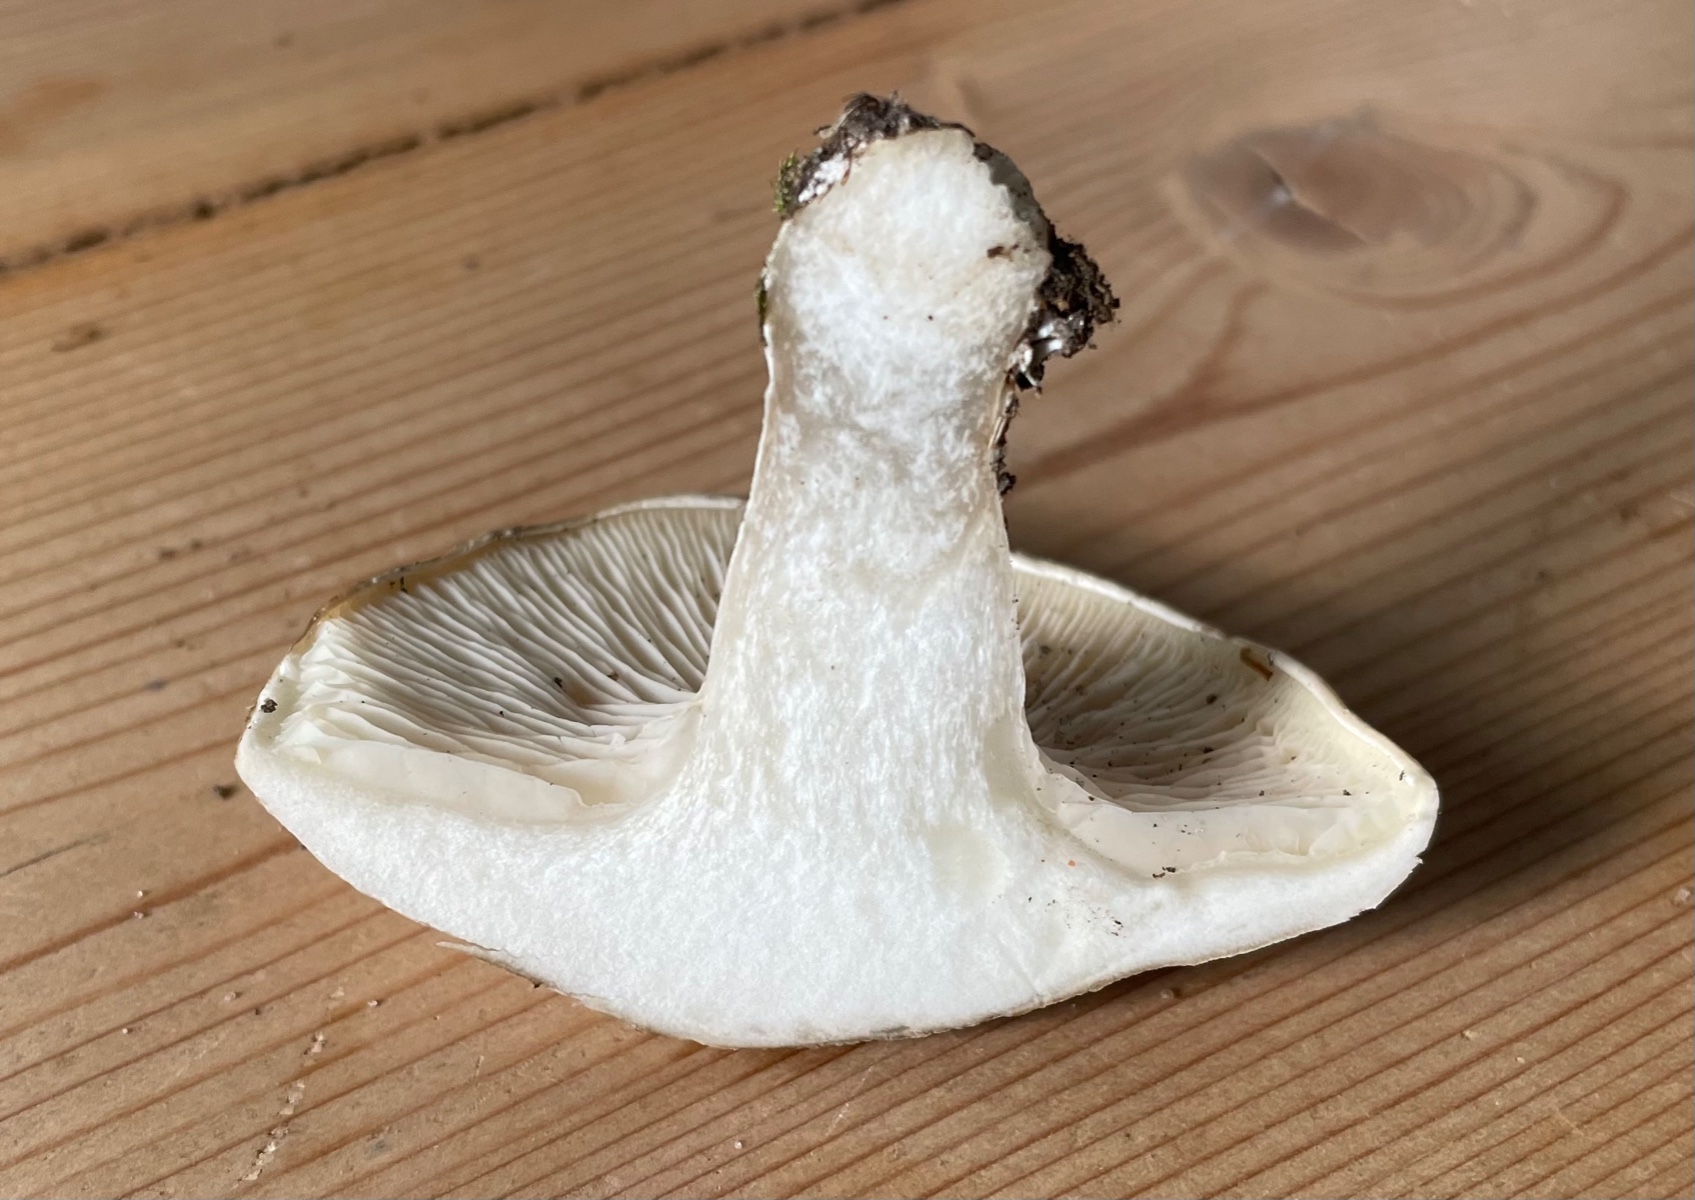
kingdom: Fungi
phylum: Basidiomycota
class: Agaricomycetes
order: Agaricales
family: Entolomataceae
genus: Clitopilus
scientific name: Clitopilus prunulus
